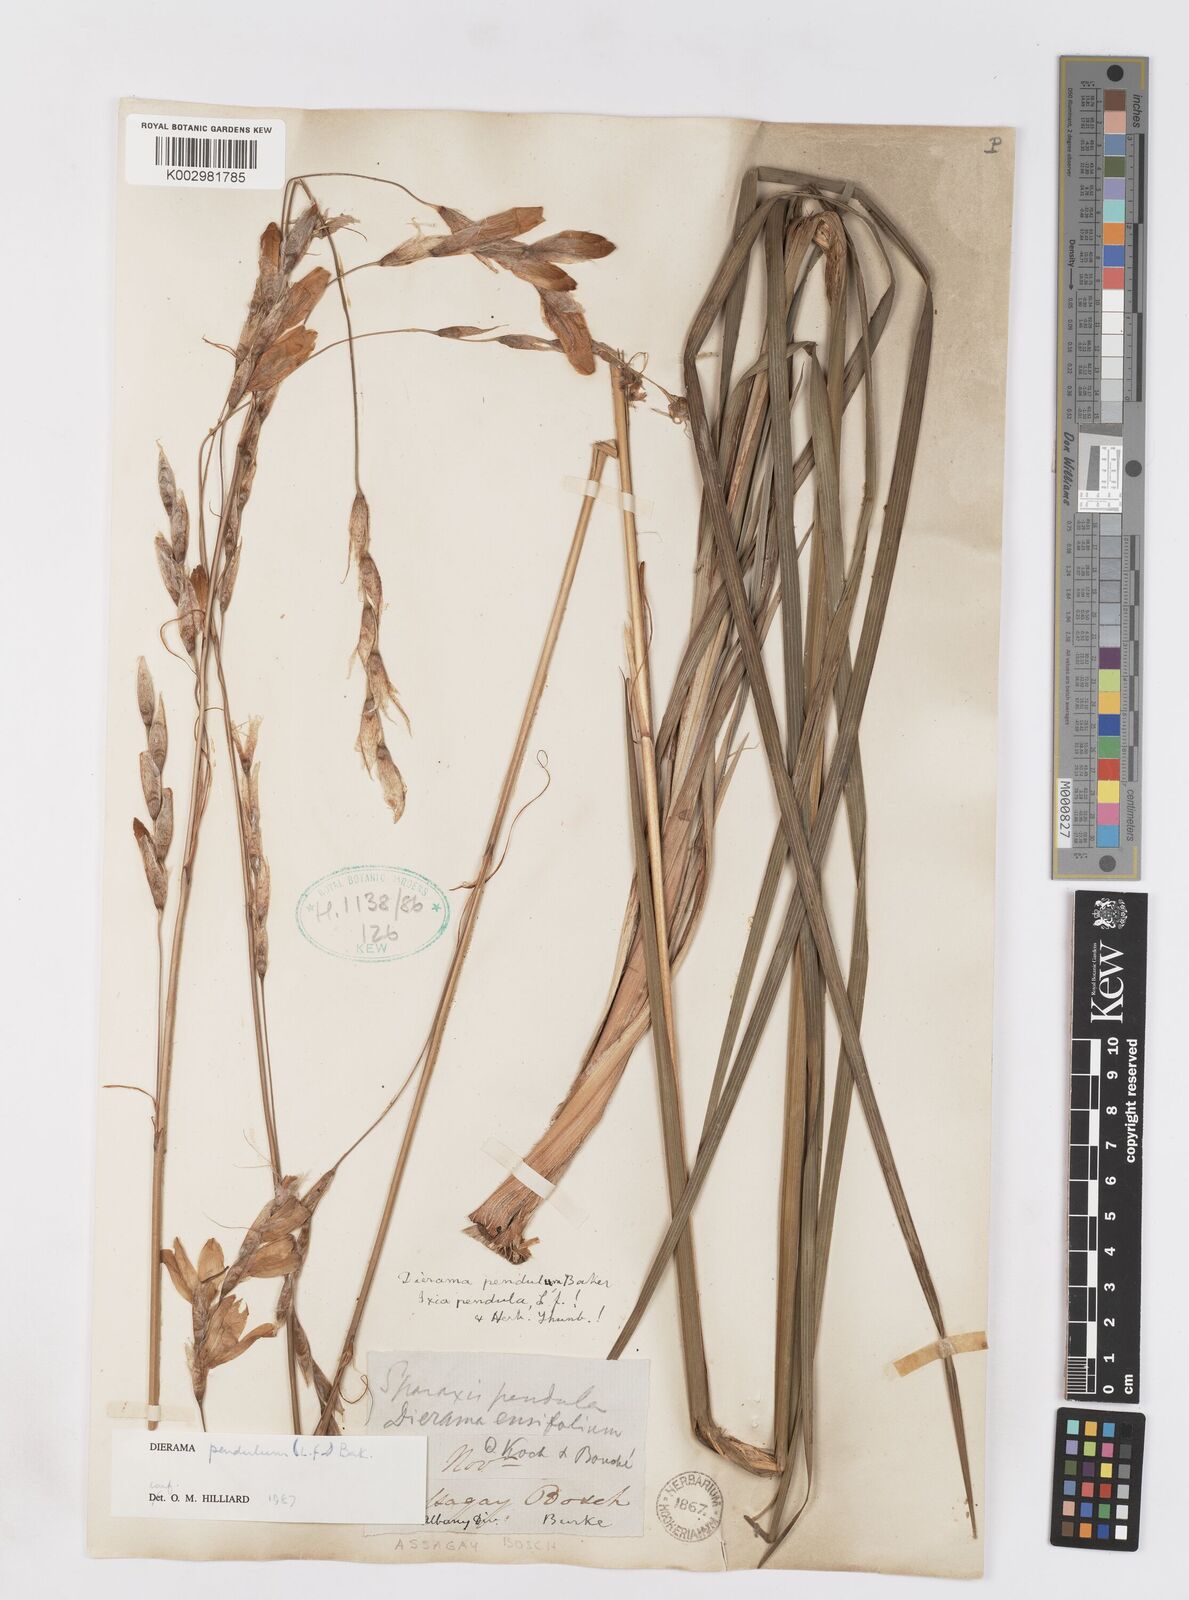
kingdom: Plantae
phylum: Tracheophyta
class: Liliopsida
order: Asparagales
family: Iridaceae
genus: Dierama
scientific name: Dierama pendulum
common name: Grassy-bell
